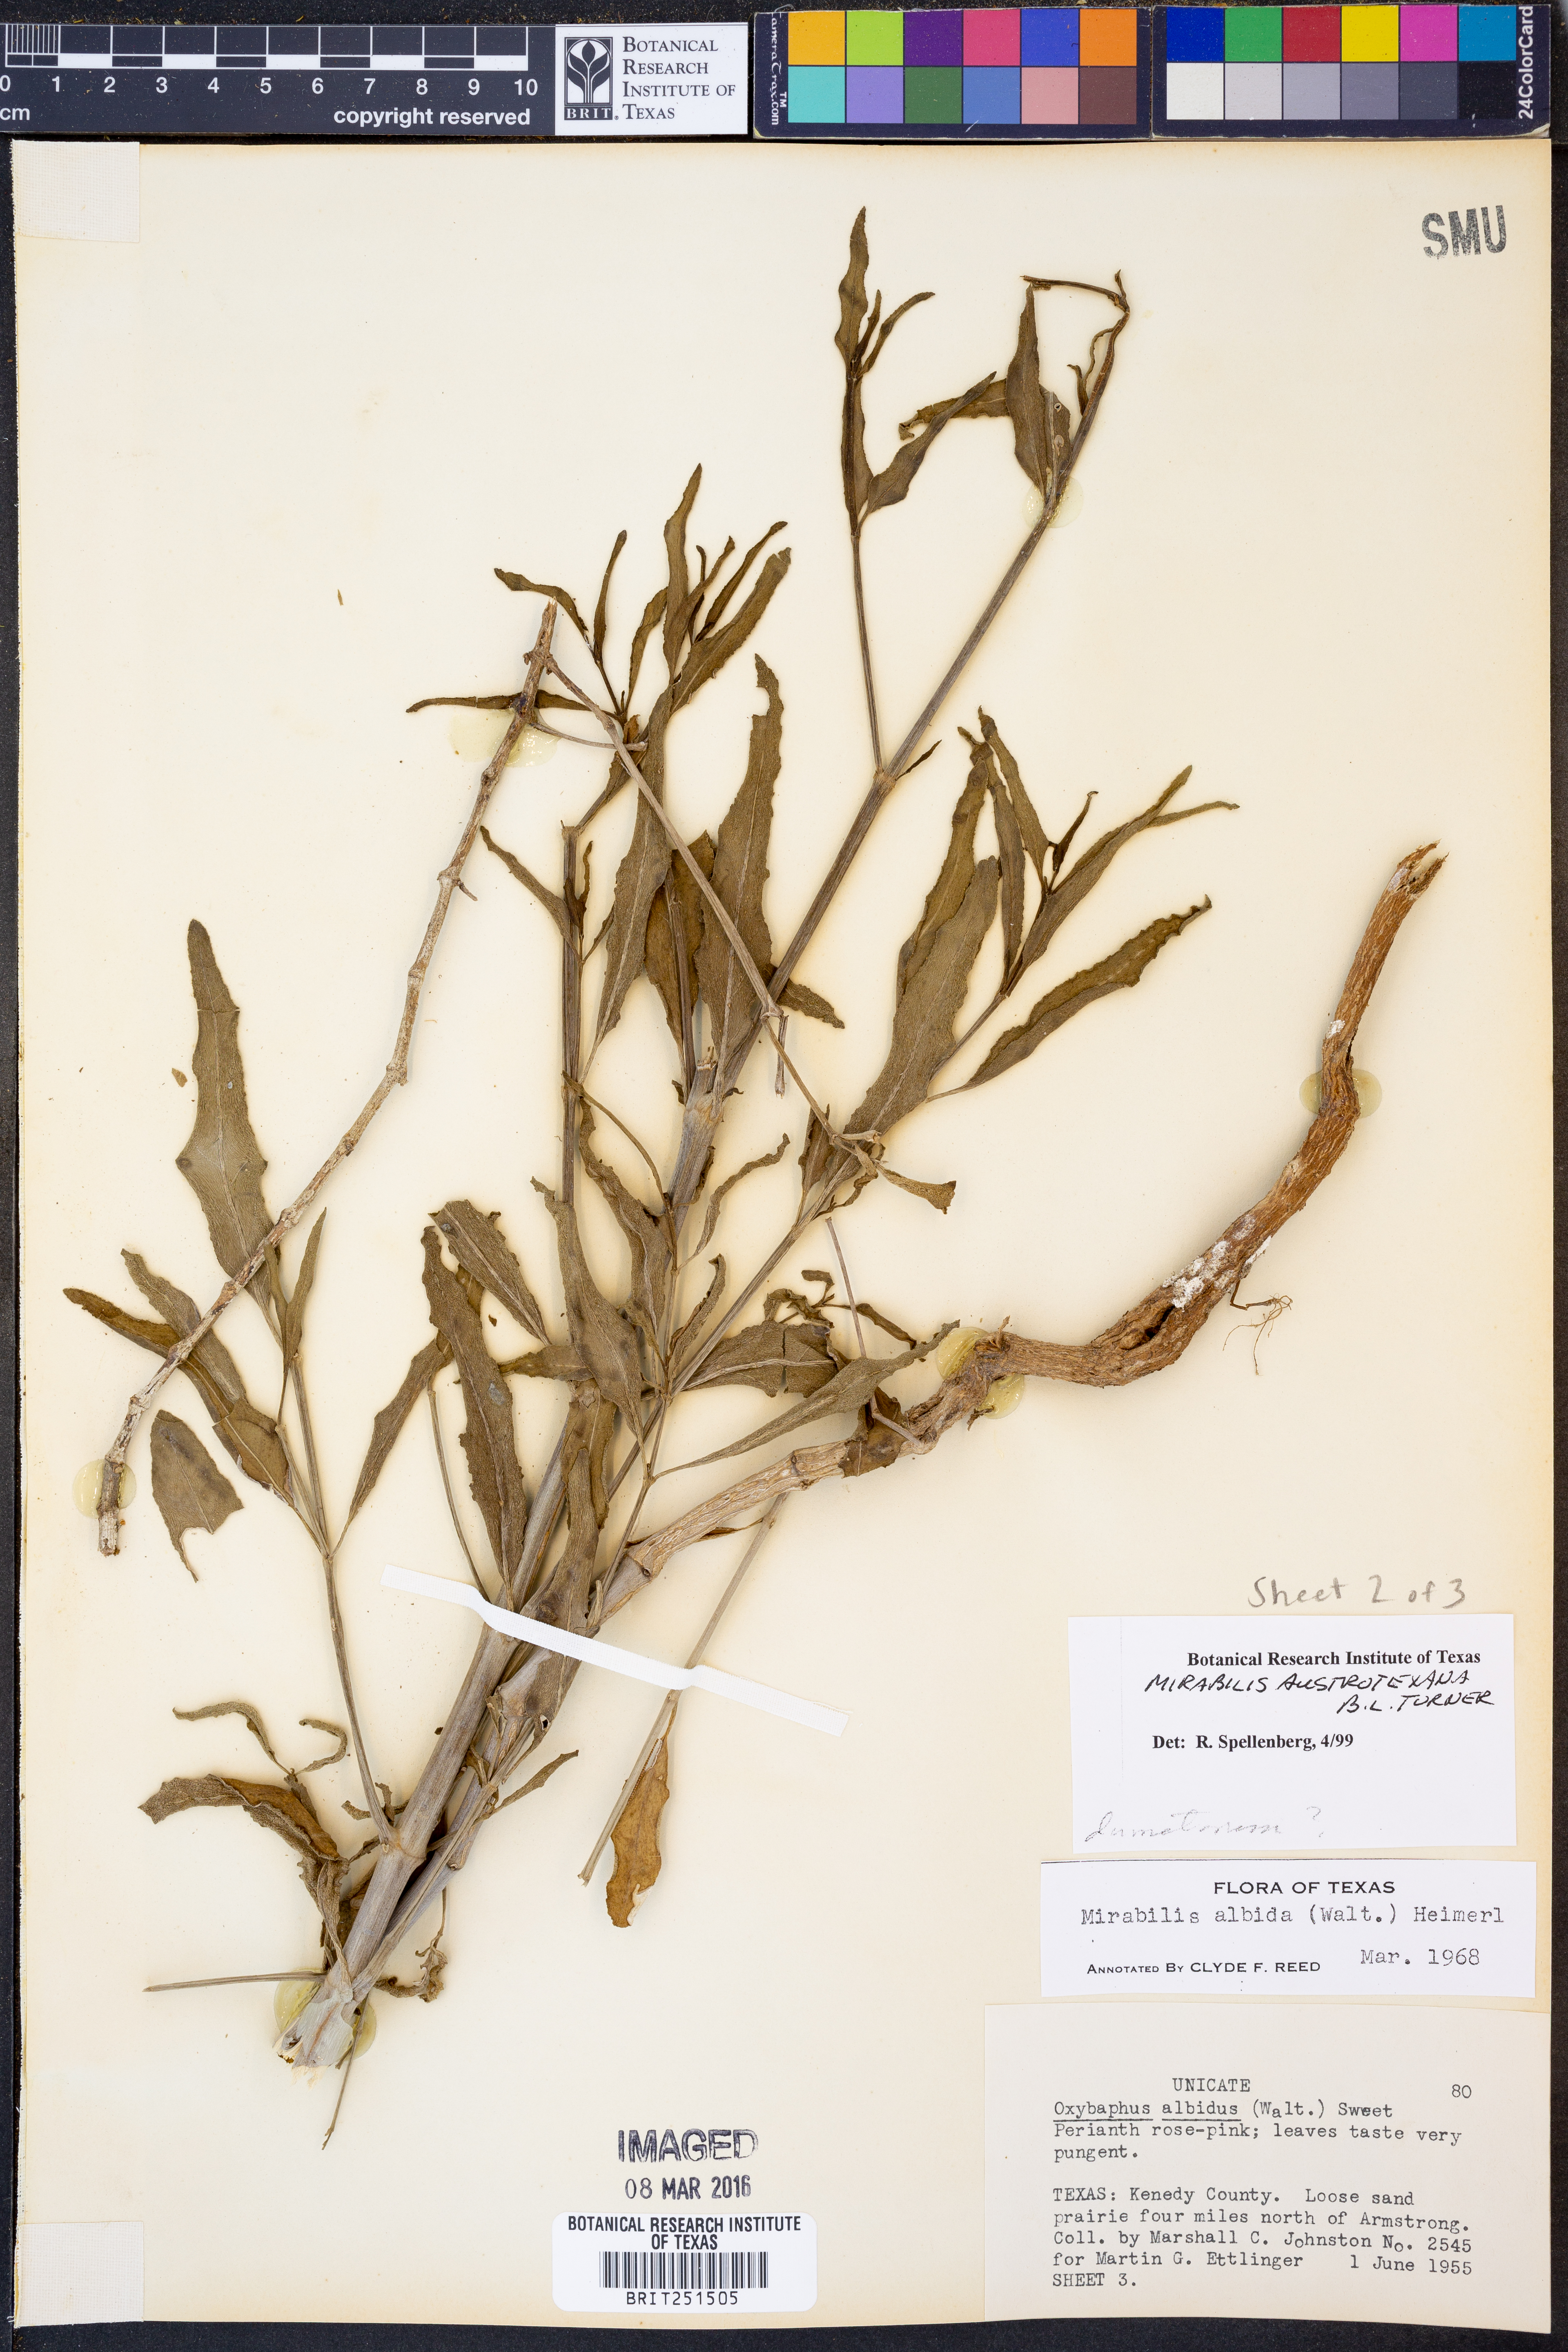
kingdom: Plantae
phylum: Tracheophyta
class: Magnoliopsida
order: Caryophyllales
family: Nyctaginaceae
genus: Mirabilis
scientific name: Mirabilis austrotexana
